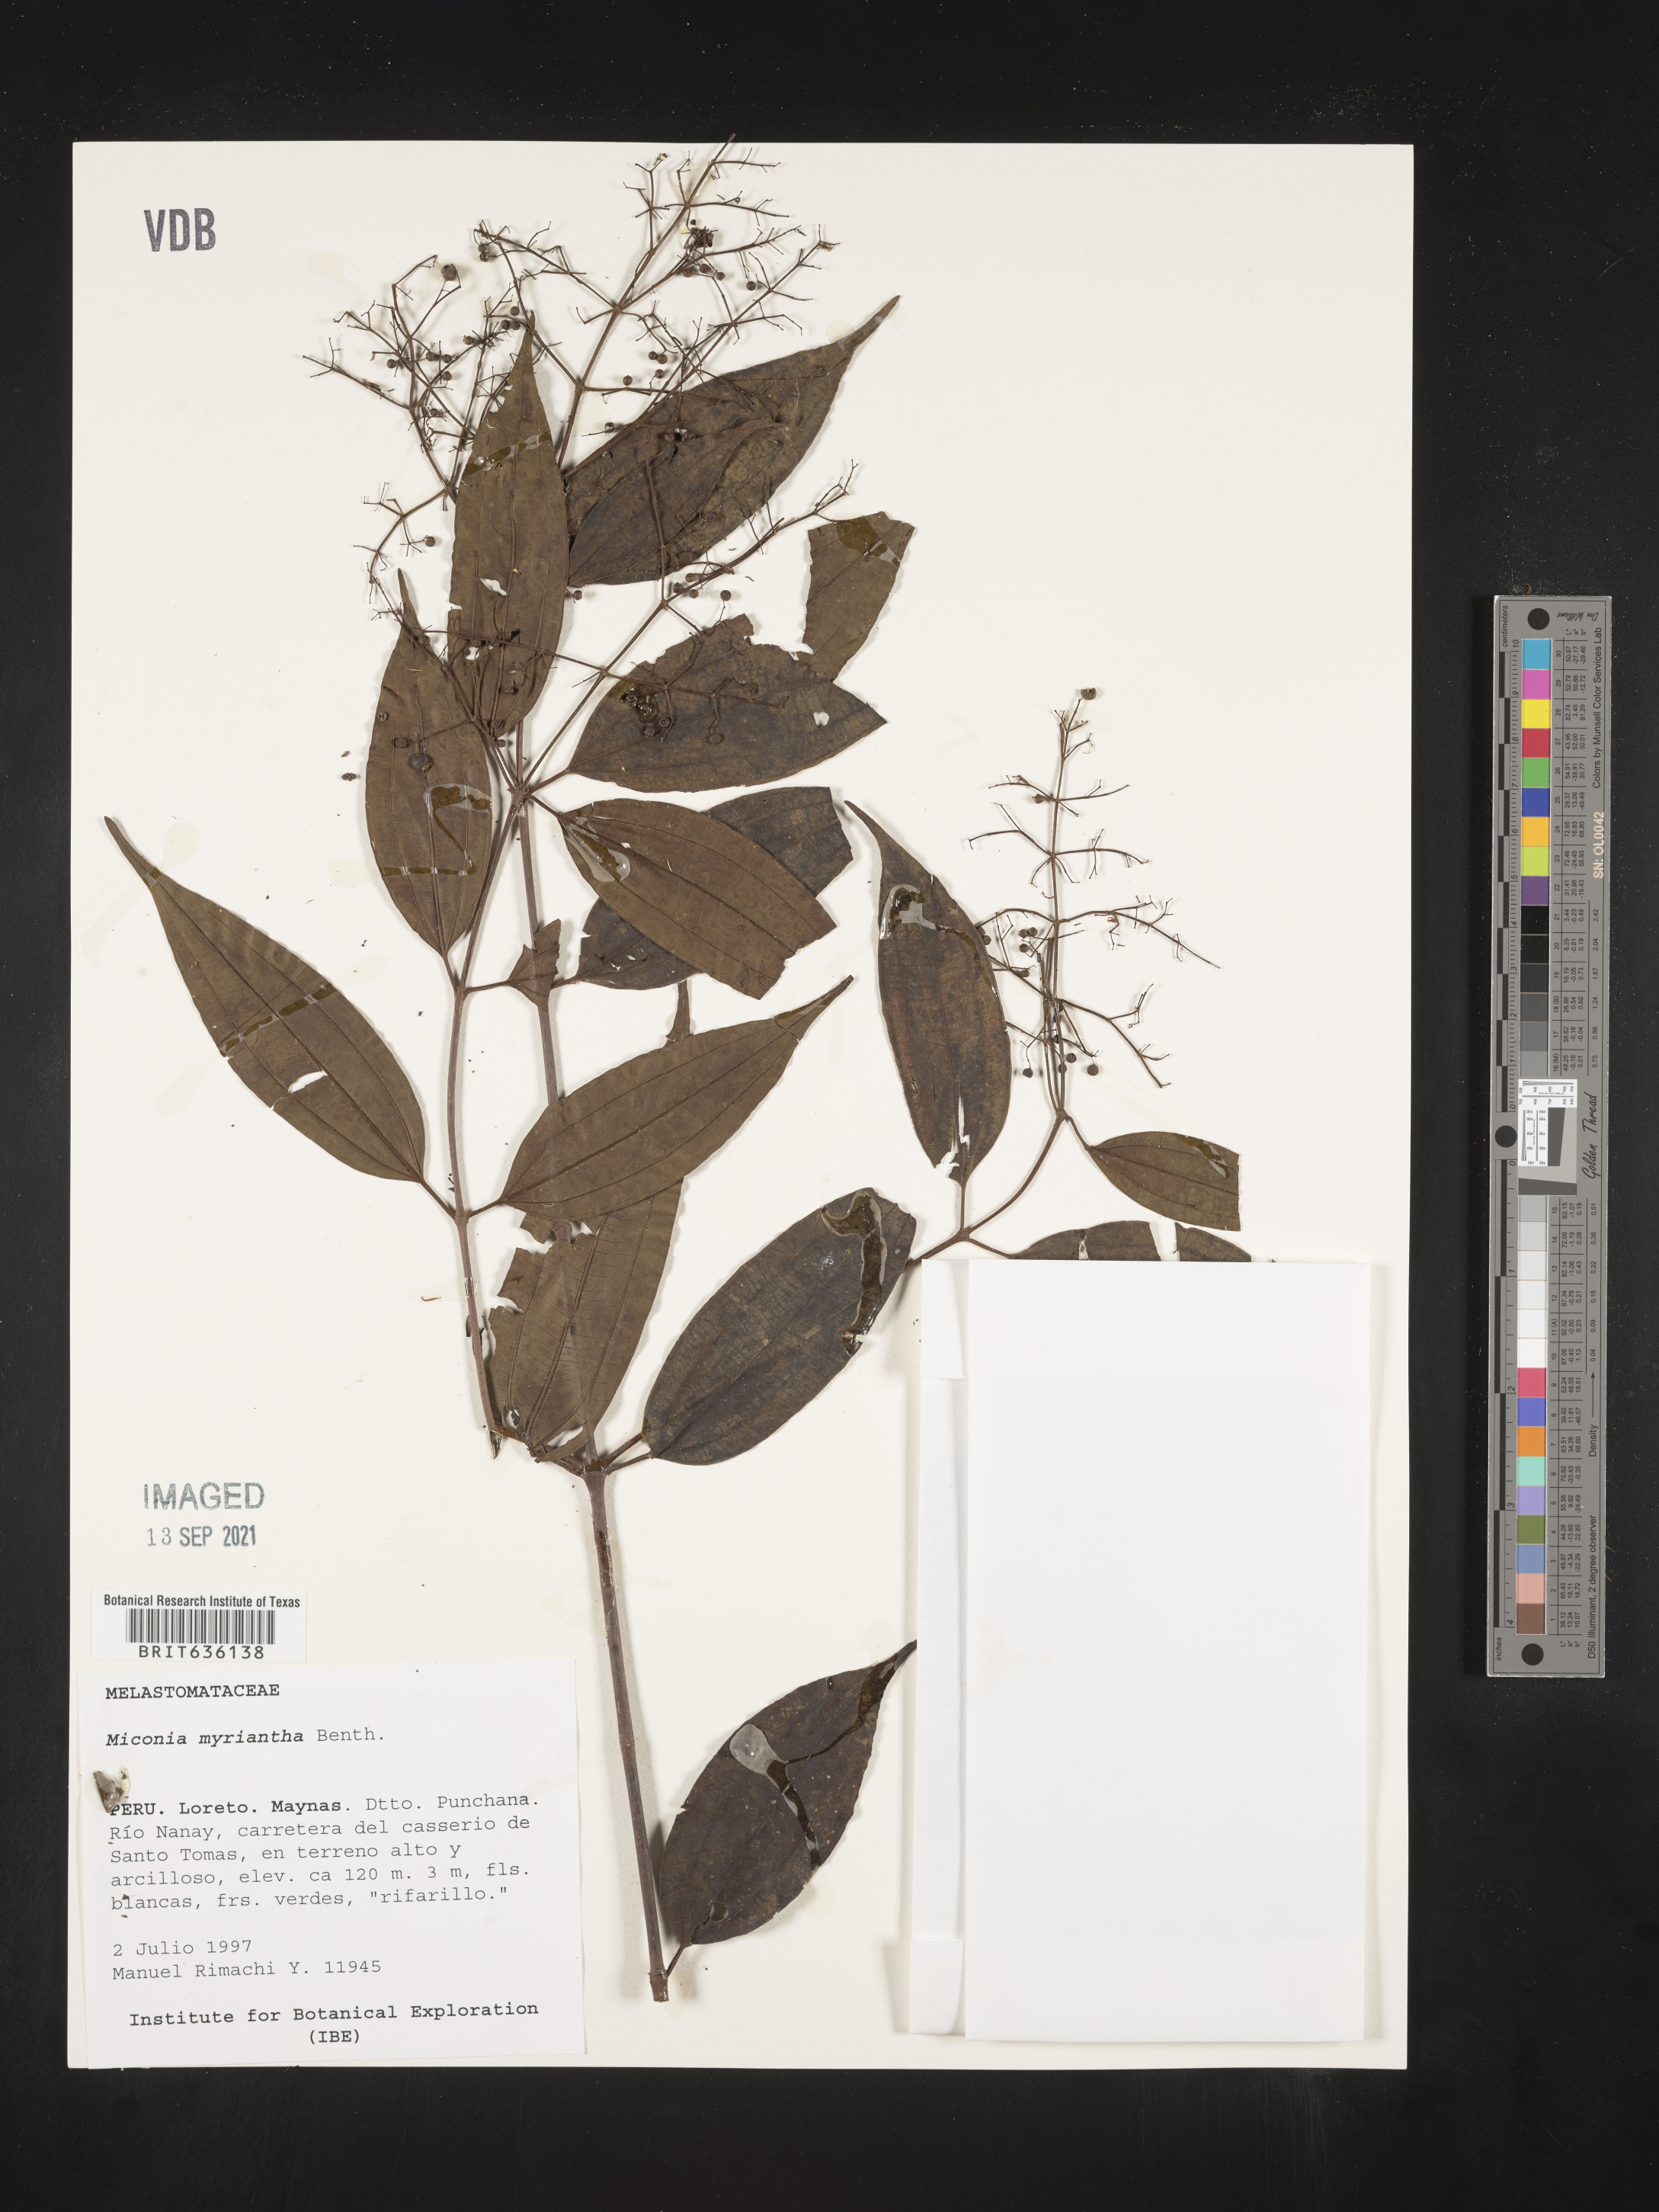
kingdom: Plantae
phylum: Tracheophyta
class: Magnoliopsida
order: Myrtales
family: Melastomataceae
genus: Miconia
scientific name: Miconia
